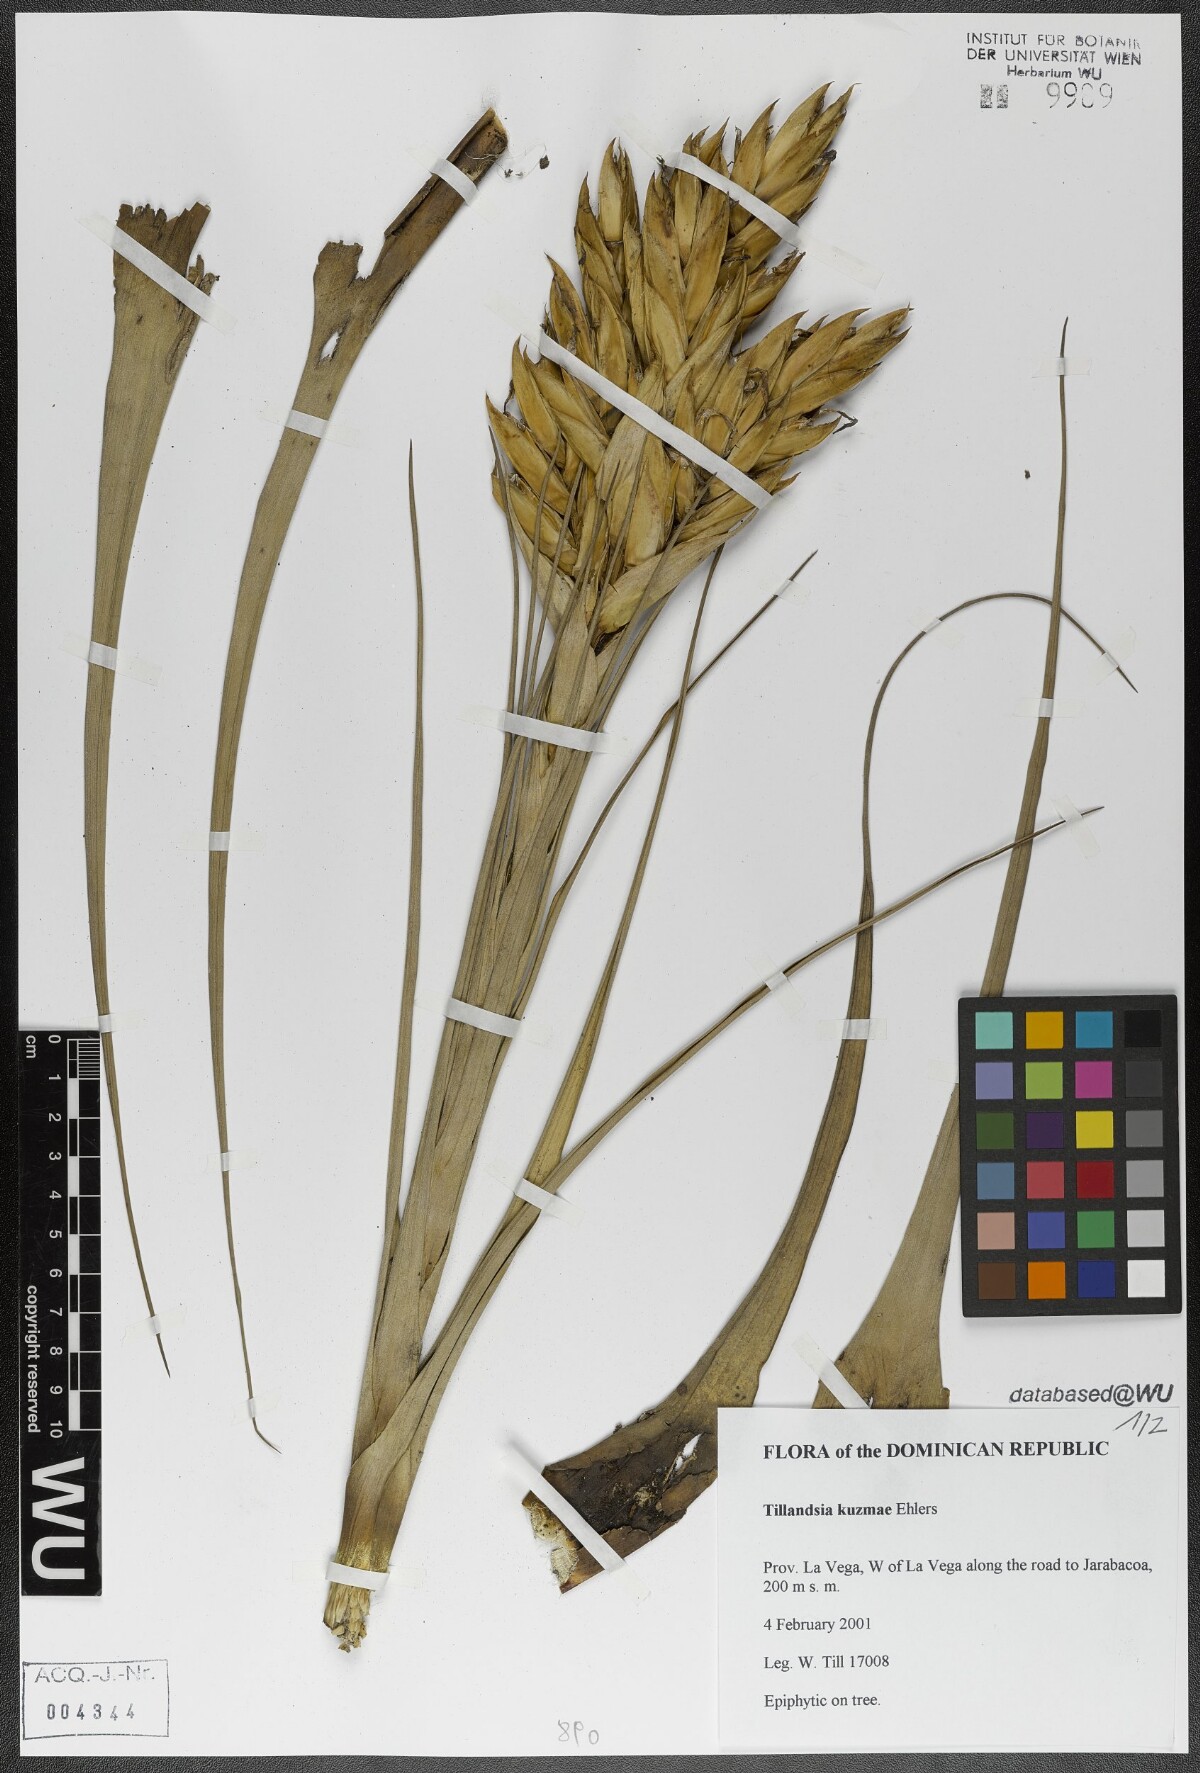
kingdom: Plantae
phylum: Tracheophyta
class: Liliopsida
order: Poales
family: Bromeliaceae
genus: Tillandsia
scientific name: Tillandsia kuzmae
